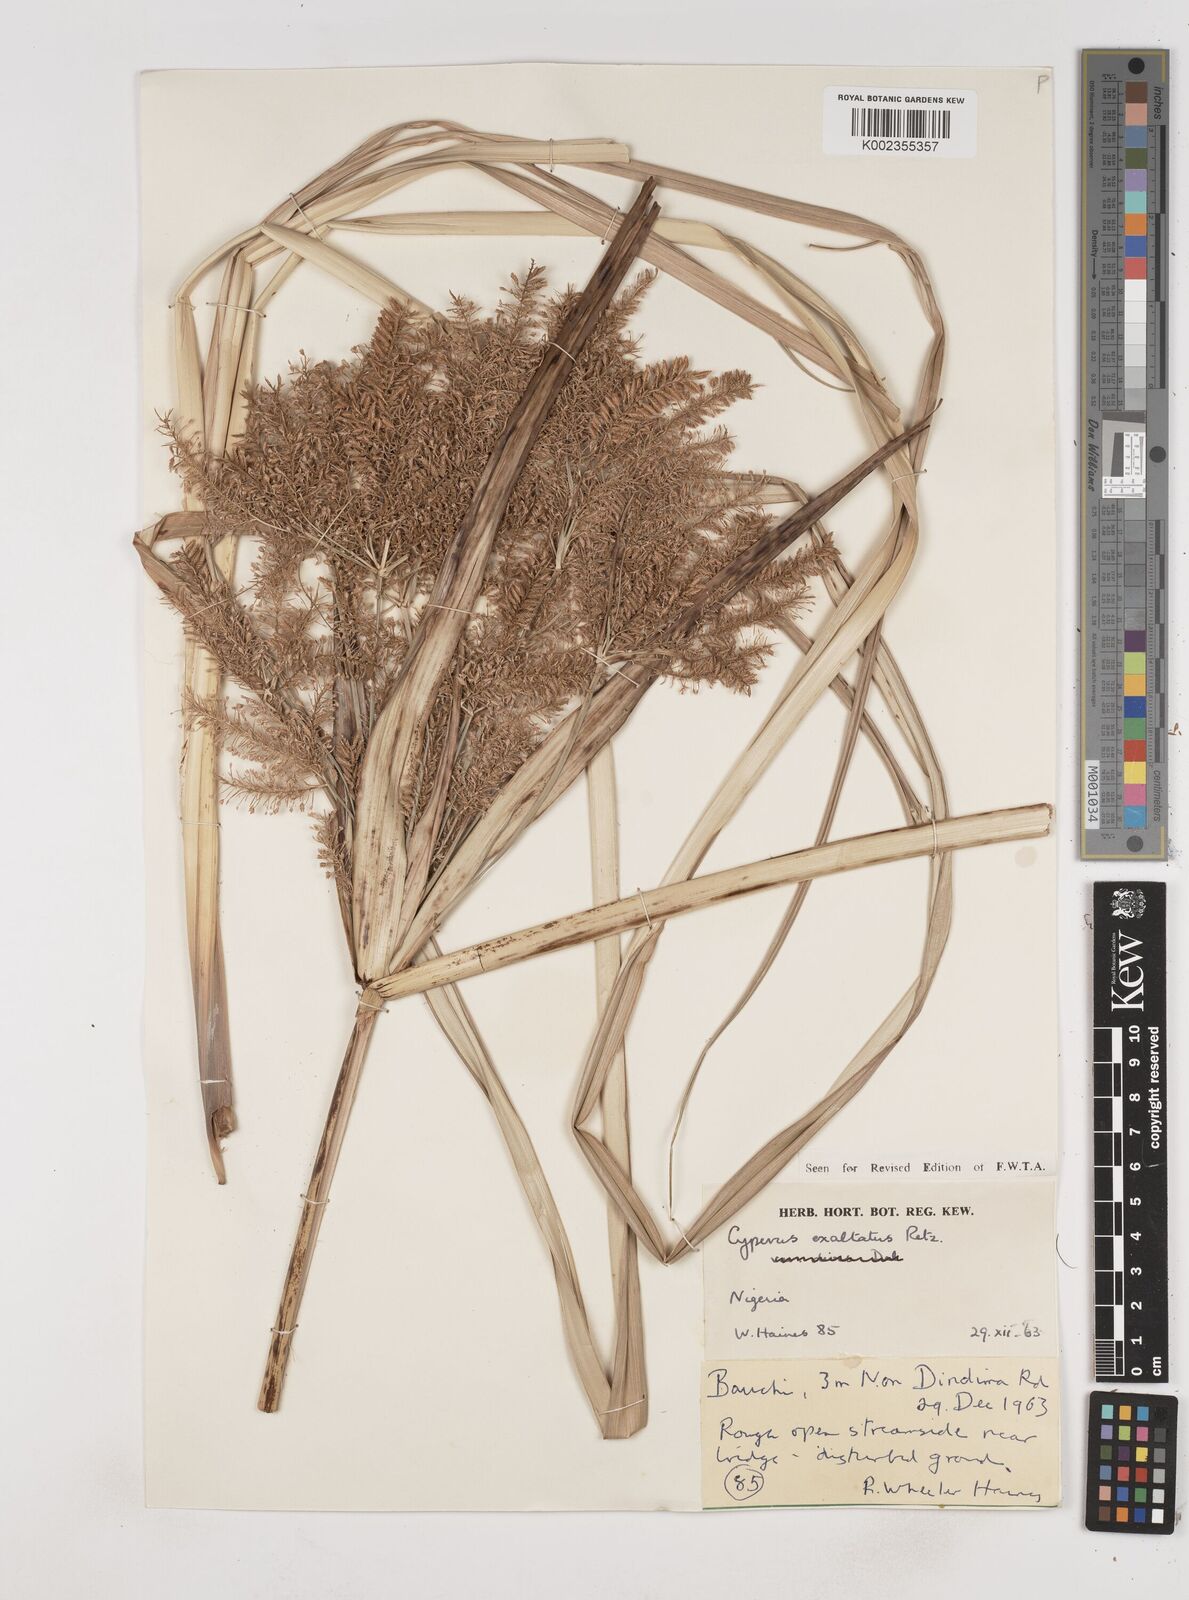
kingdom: Plantae
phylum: Tracheophyta
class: Liliopsida
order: Poales
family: Cyperaceae
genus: Cyperus
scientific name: Cyperus exaltatus
